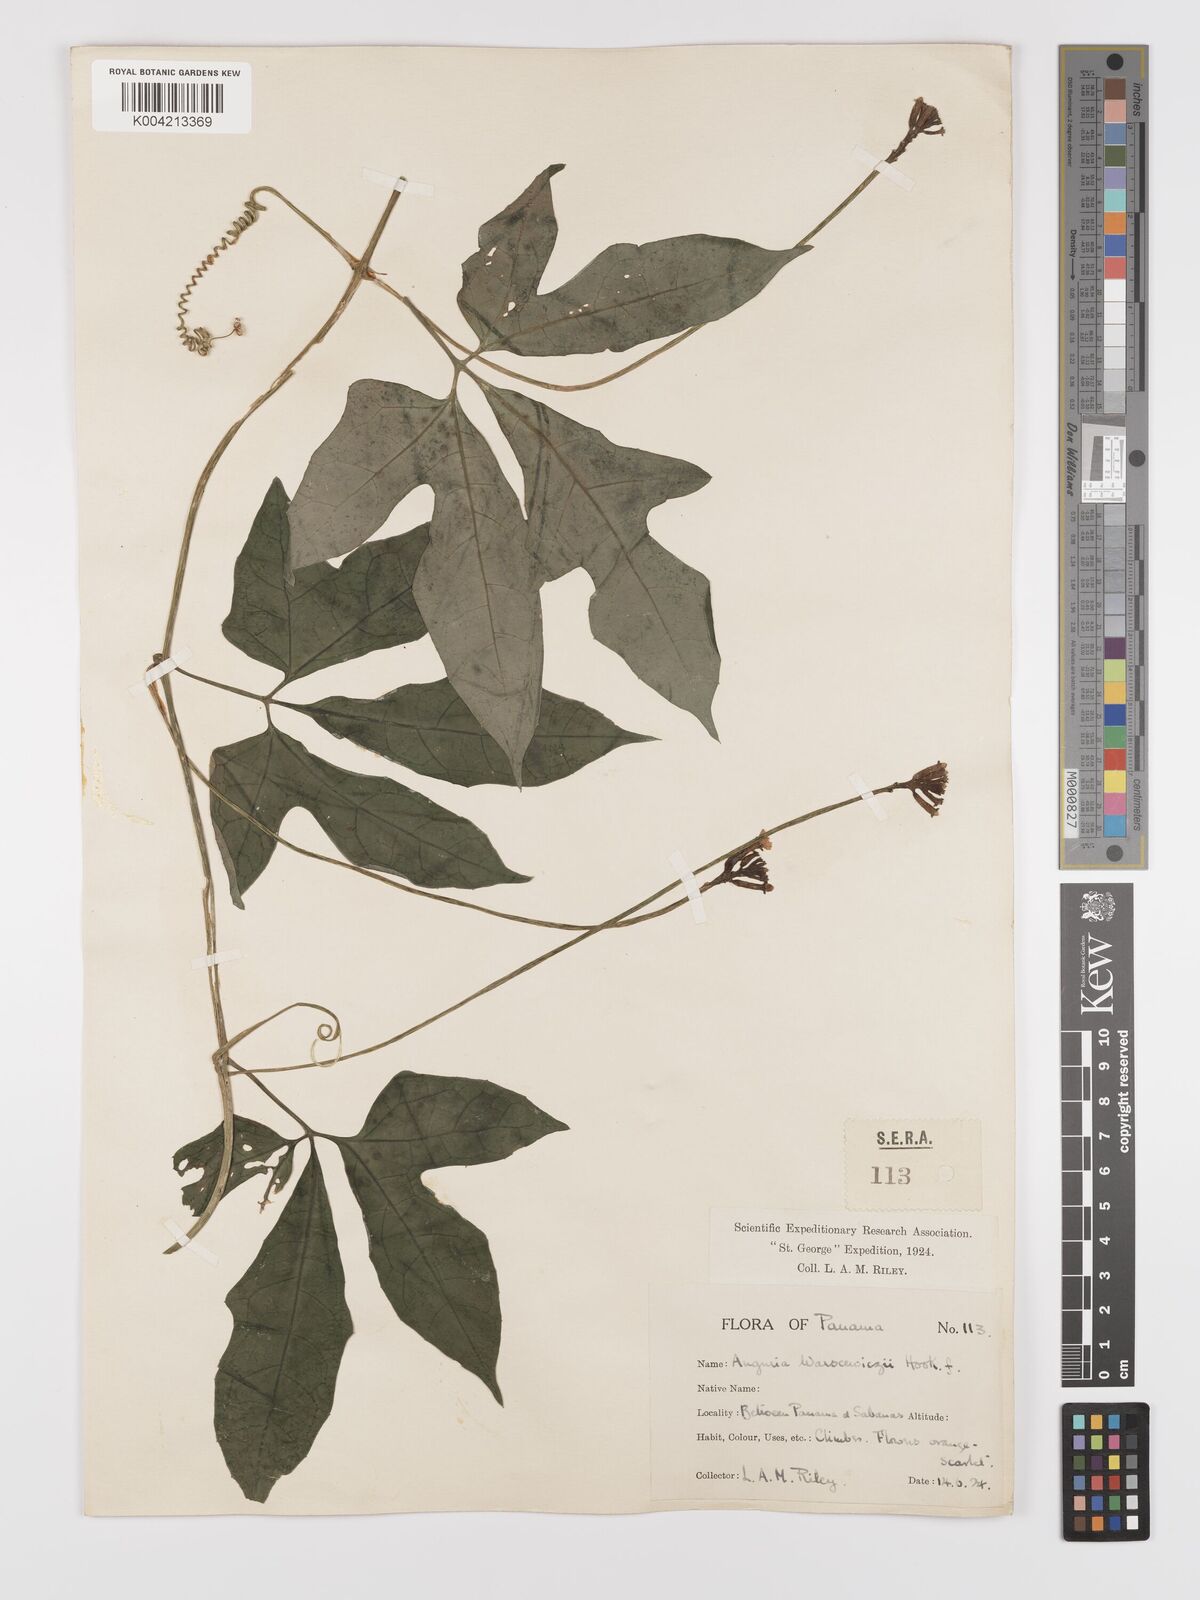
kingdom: Plantae
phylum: Tracheophyta
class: Magnoliopsida
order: Cucurbitales
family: Cucurbitaceae
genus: Psiguria
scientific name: Psiguria warscewiczii
